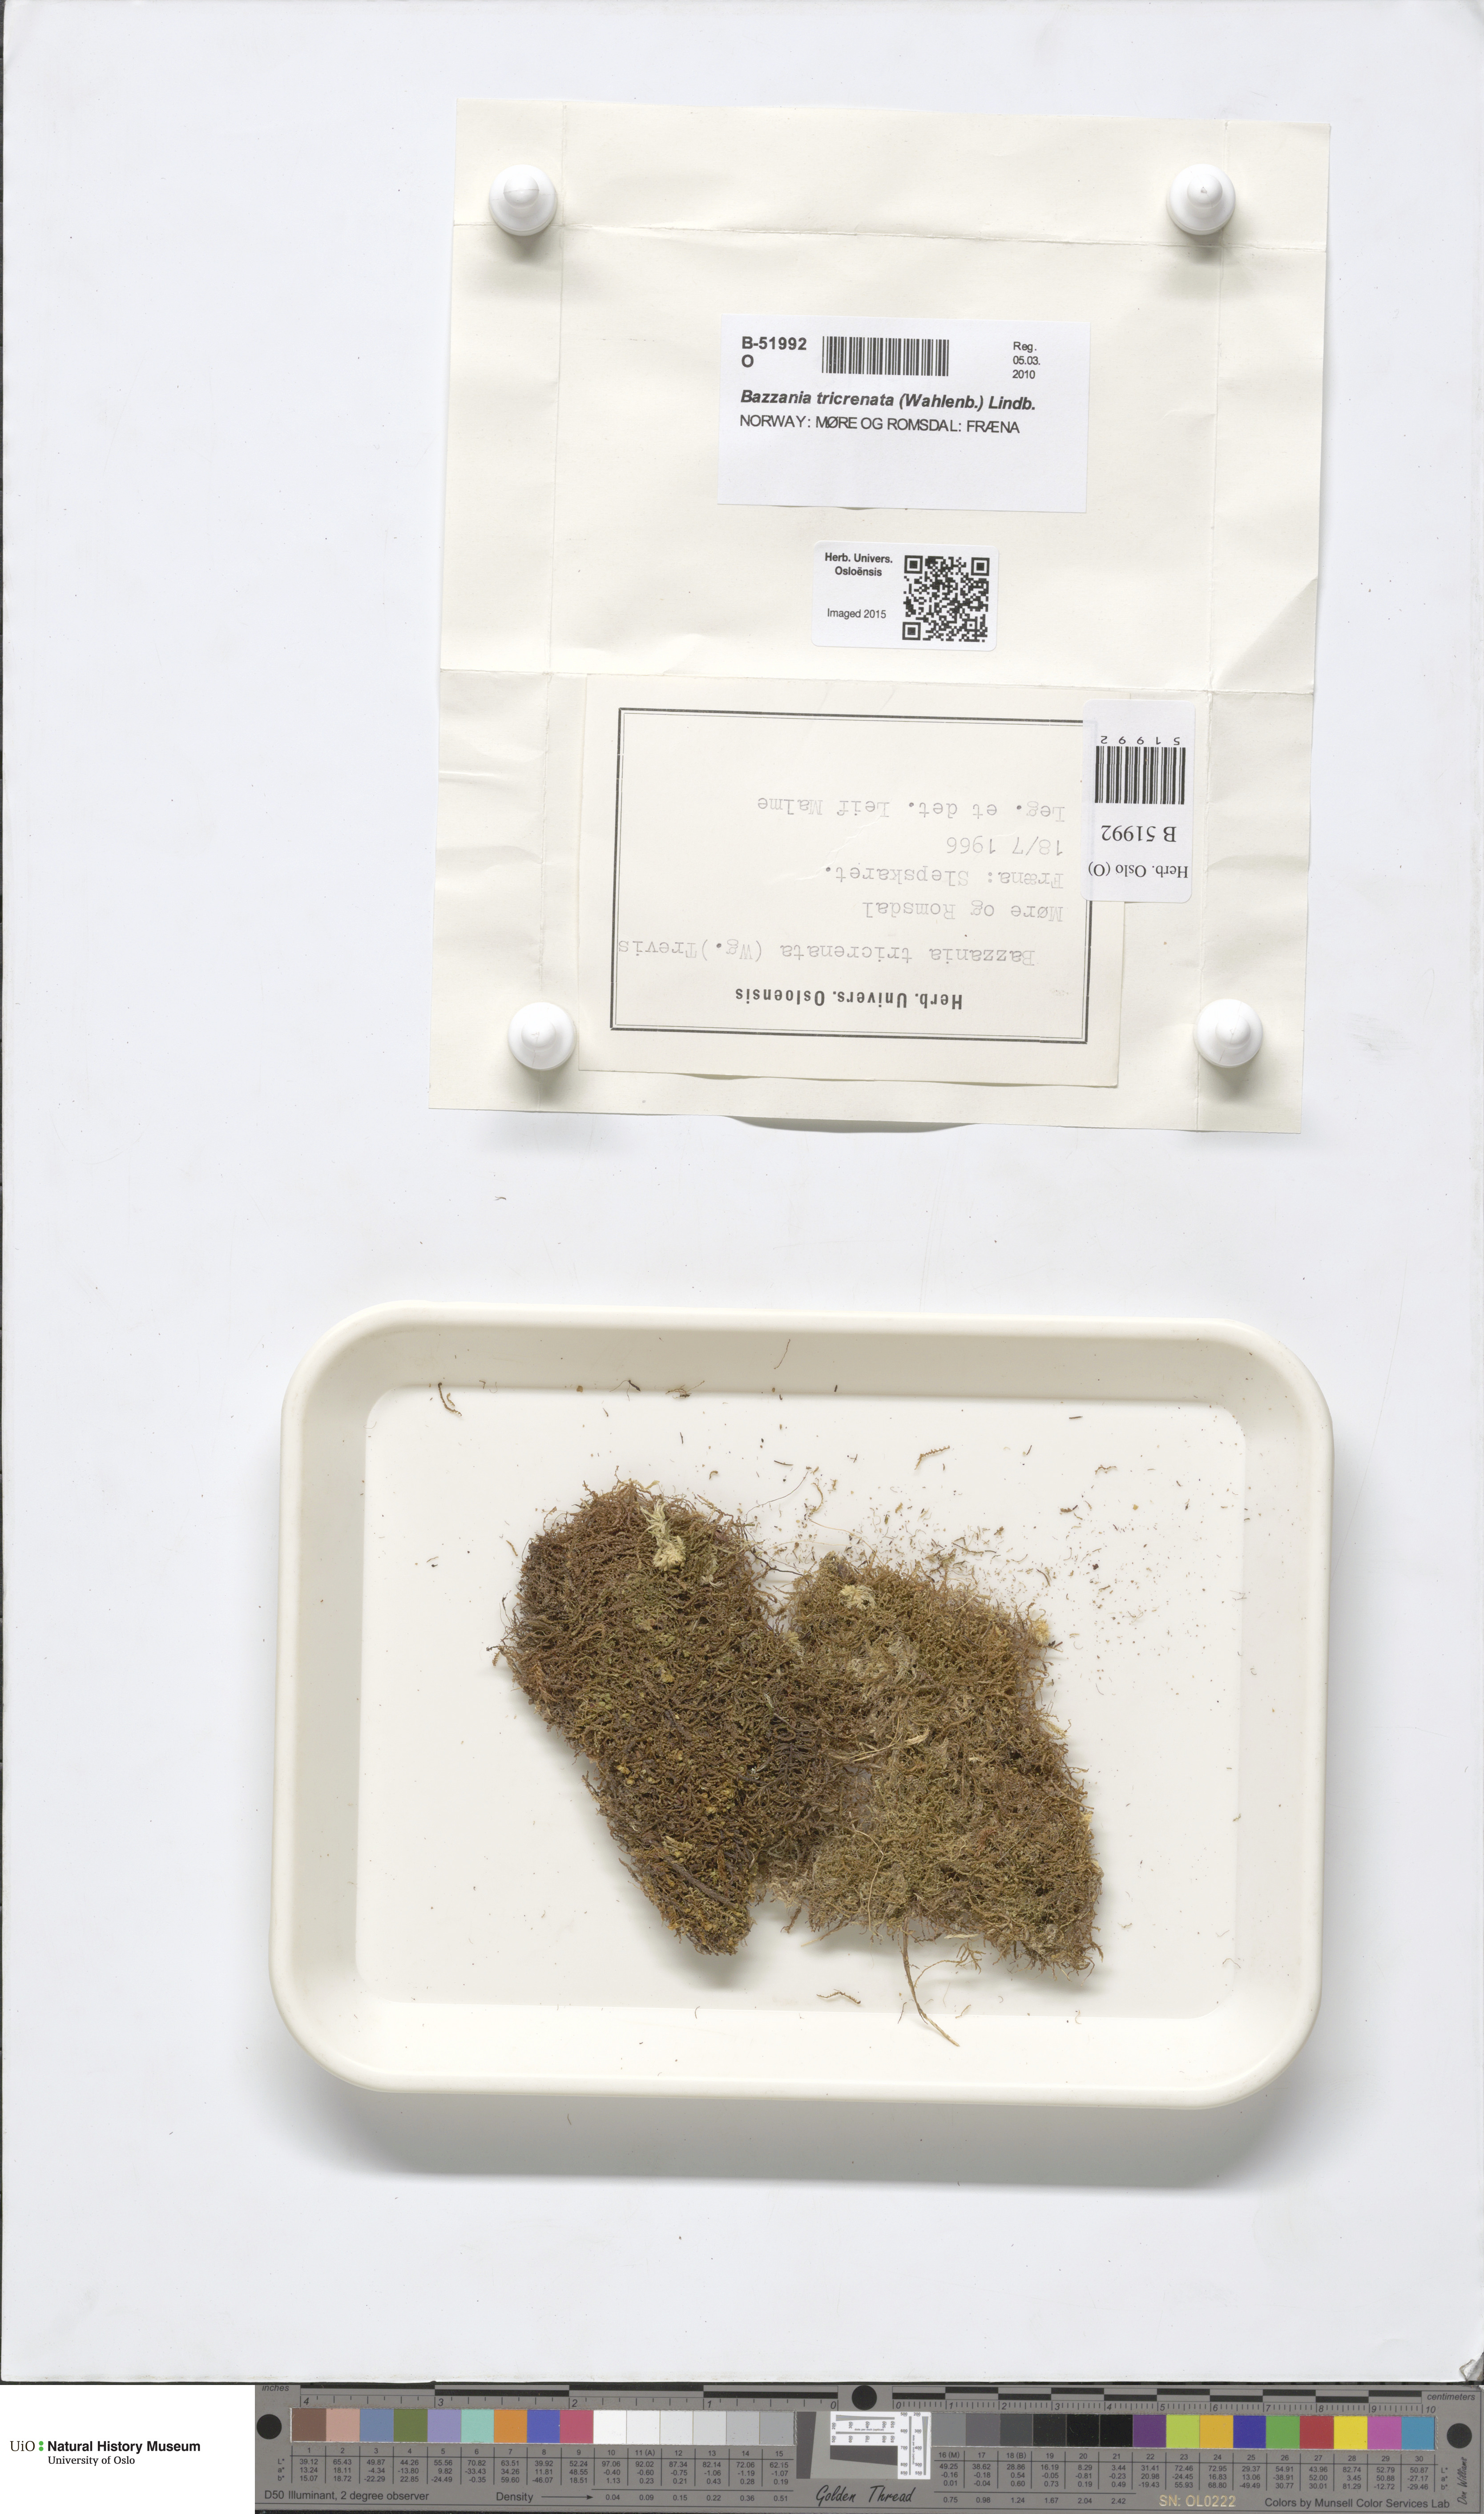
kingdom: Plantae
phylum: Marchantiophyta
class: Jungermanniopsida
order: Jungermanniales
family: Lepidoziaceae
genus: Bazzania
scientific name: Bazzania tricrenata
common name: Lesser whipwort
